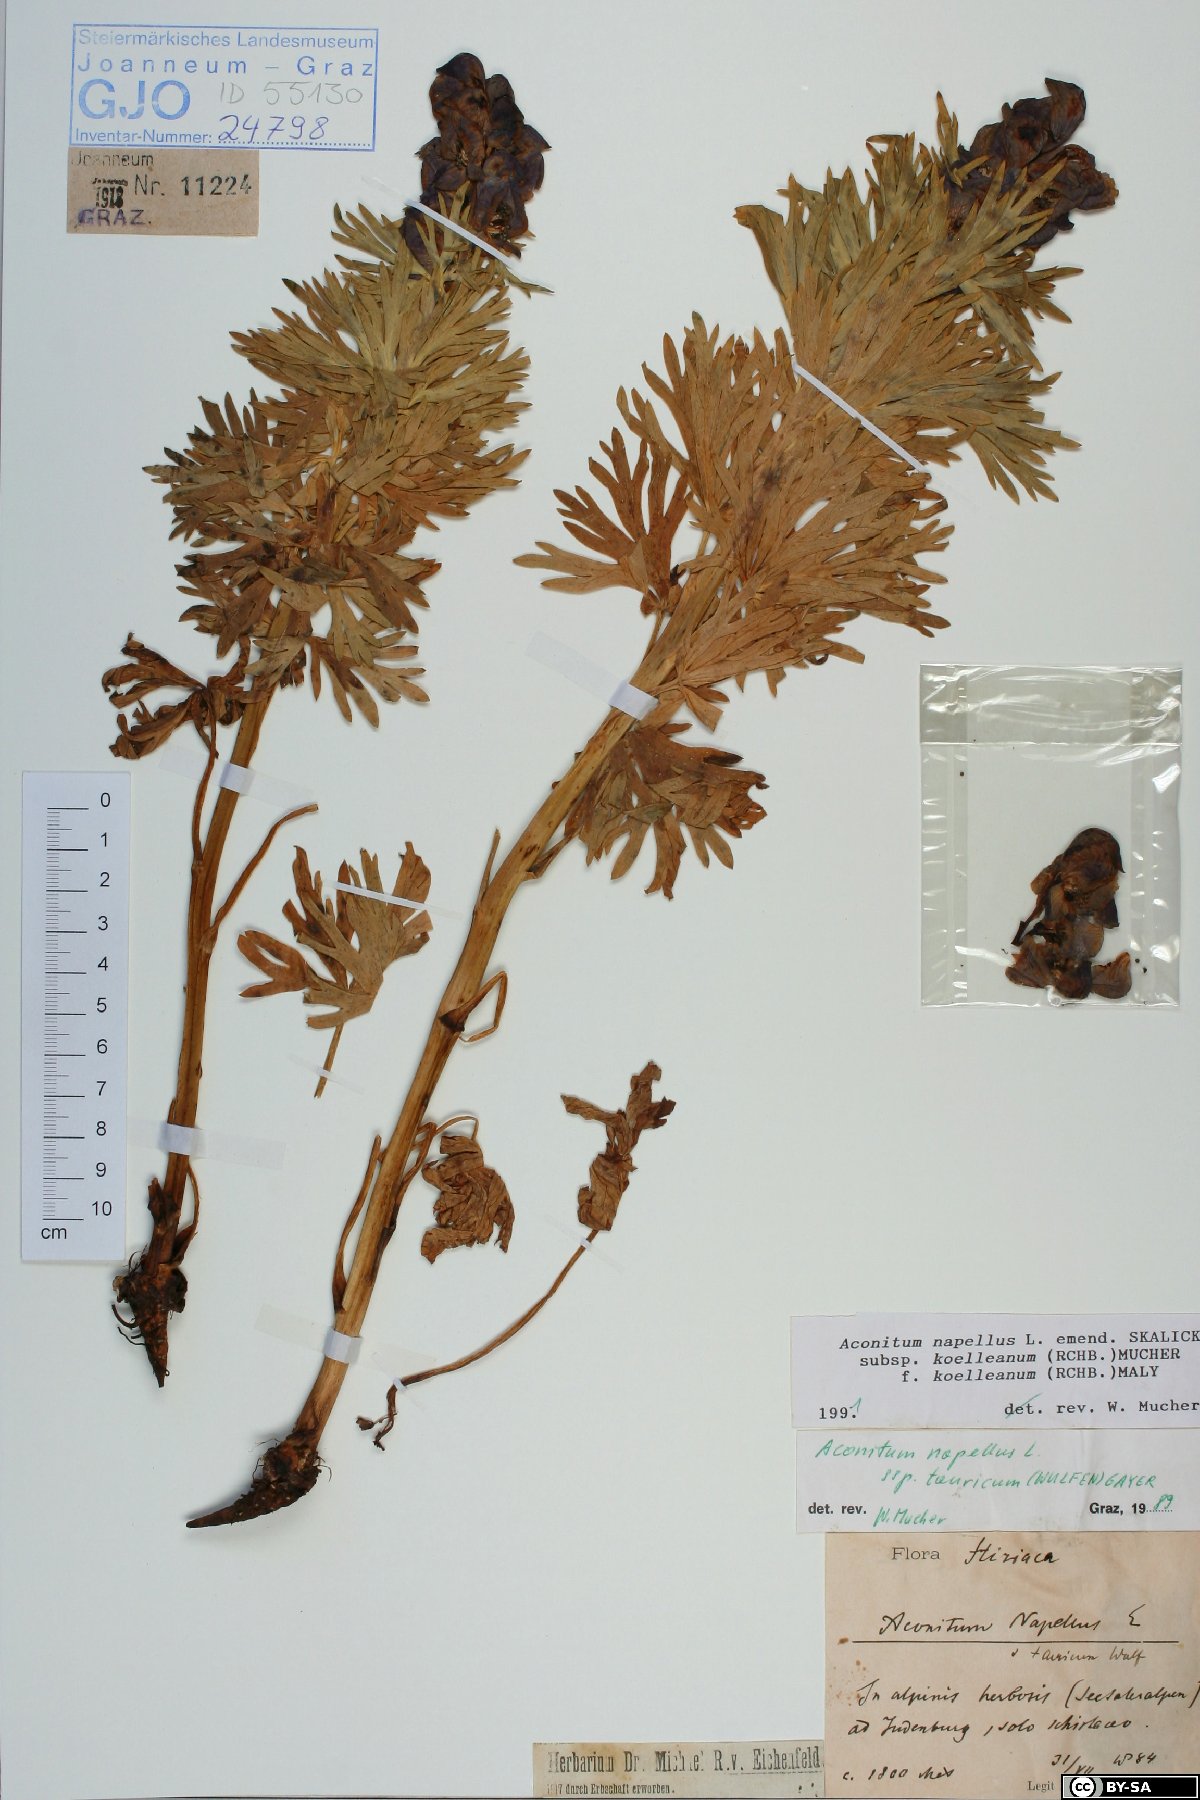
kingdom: Plantae
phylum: Tracheophyta
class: Magnoliopsida
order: Ranunculales
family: Ranunculaceae
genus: Aconitum
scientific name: Aconitum tauricum
